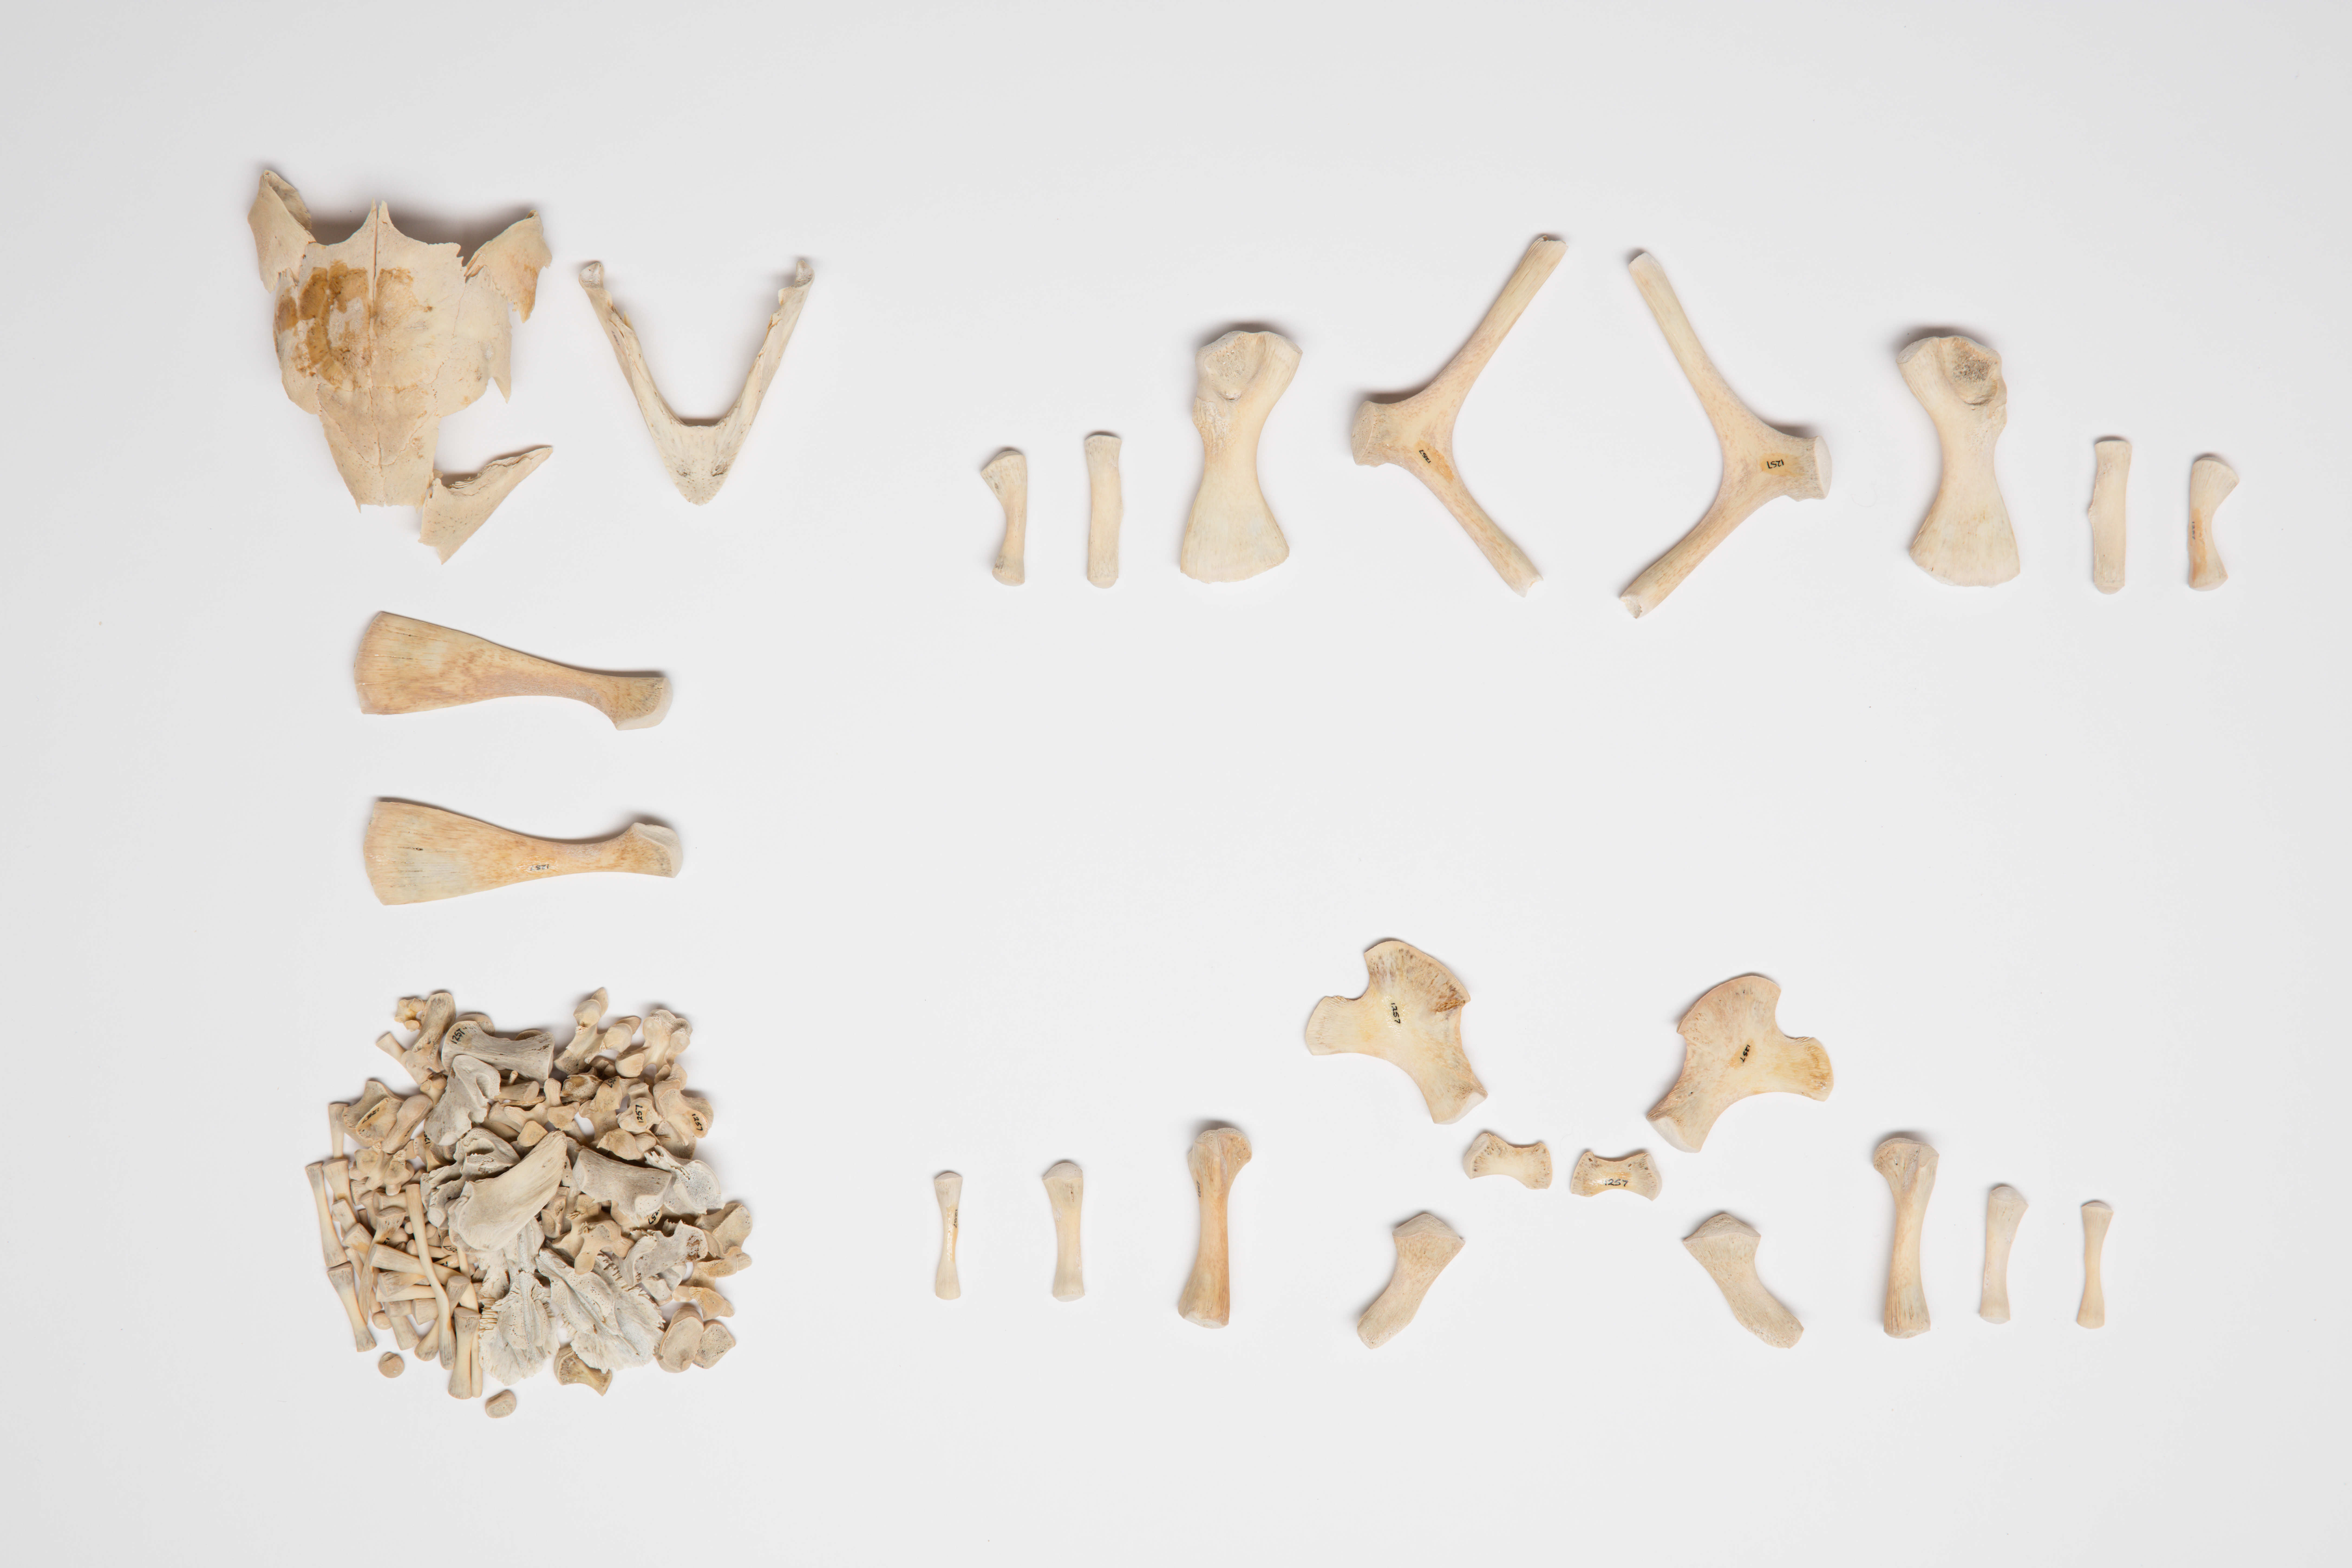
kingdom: Animalia
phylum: Chordata
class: Testudines
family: Cheloniidae
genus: Caretta
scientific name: Caretta caretta
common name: Loggerhead sea turtle
